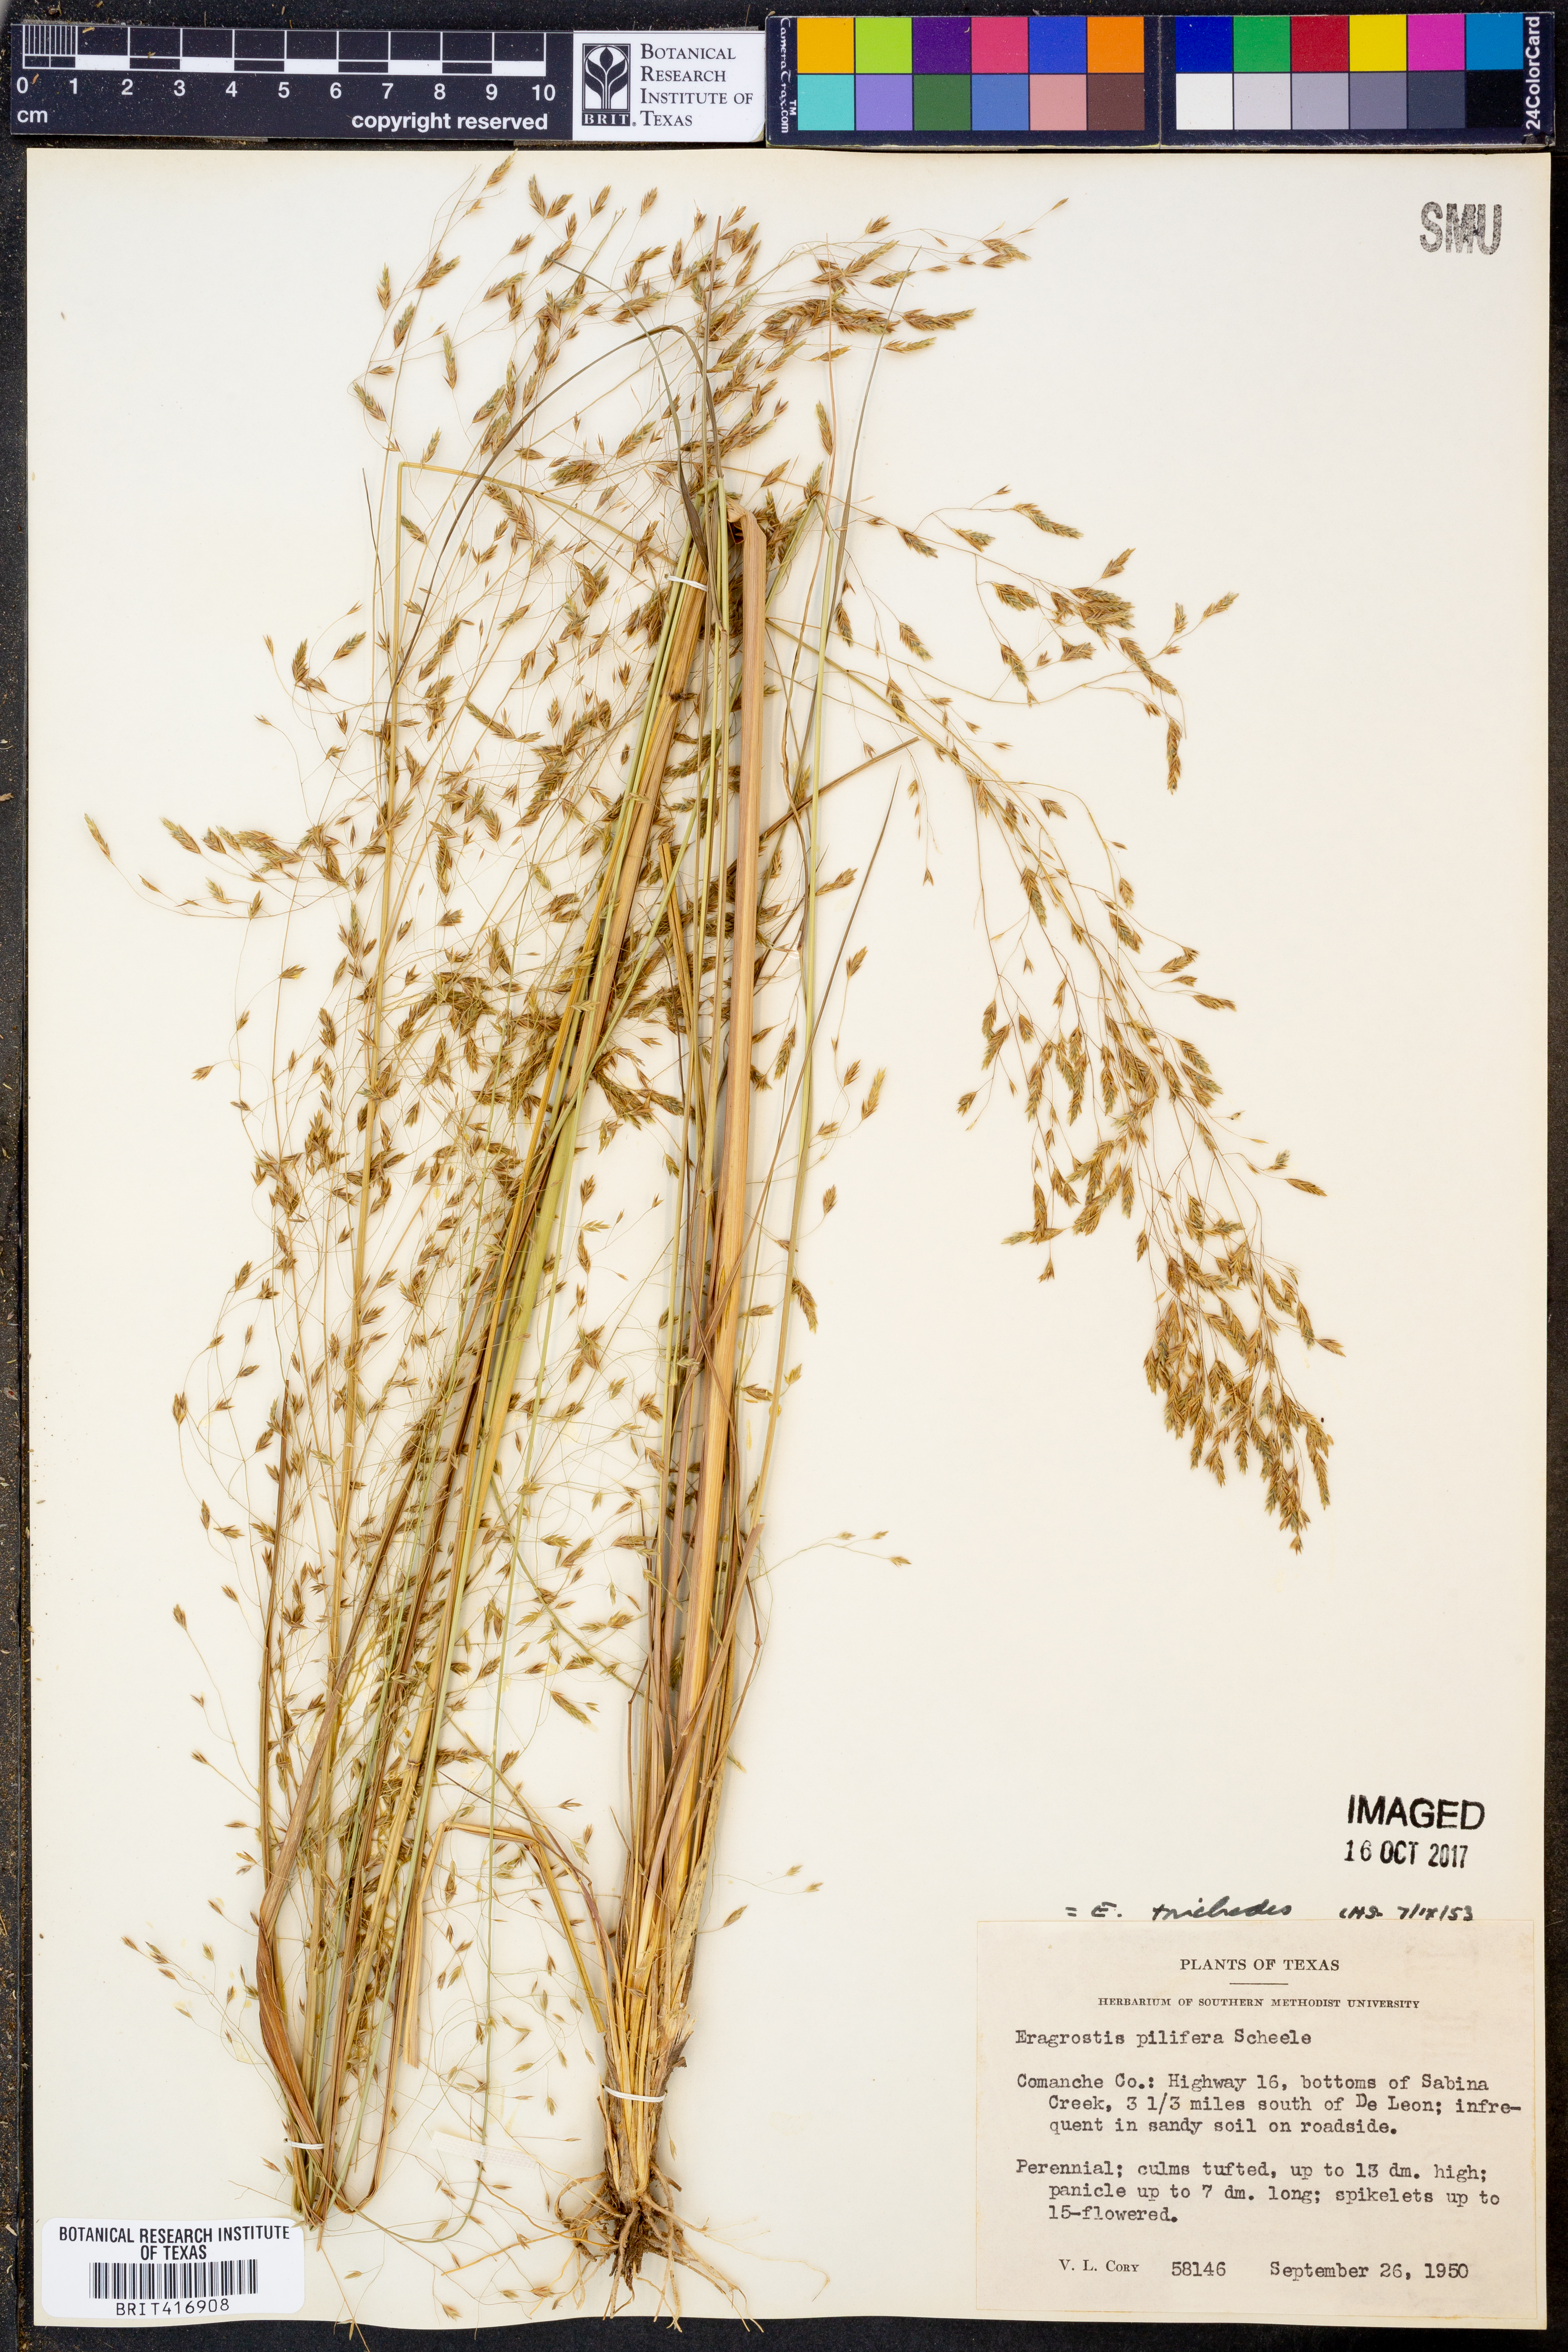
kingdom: Plantae
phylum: Tracheophyta
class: Liliopsida
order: Poales
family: Poaceae
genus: Eragrostis
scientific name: Eragrostis trichodes
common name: Sand love grass
